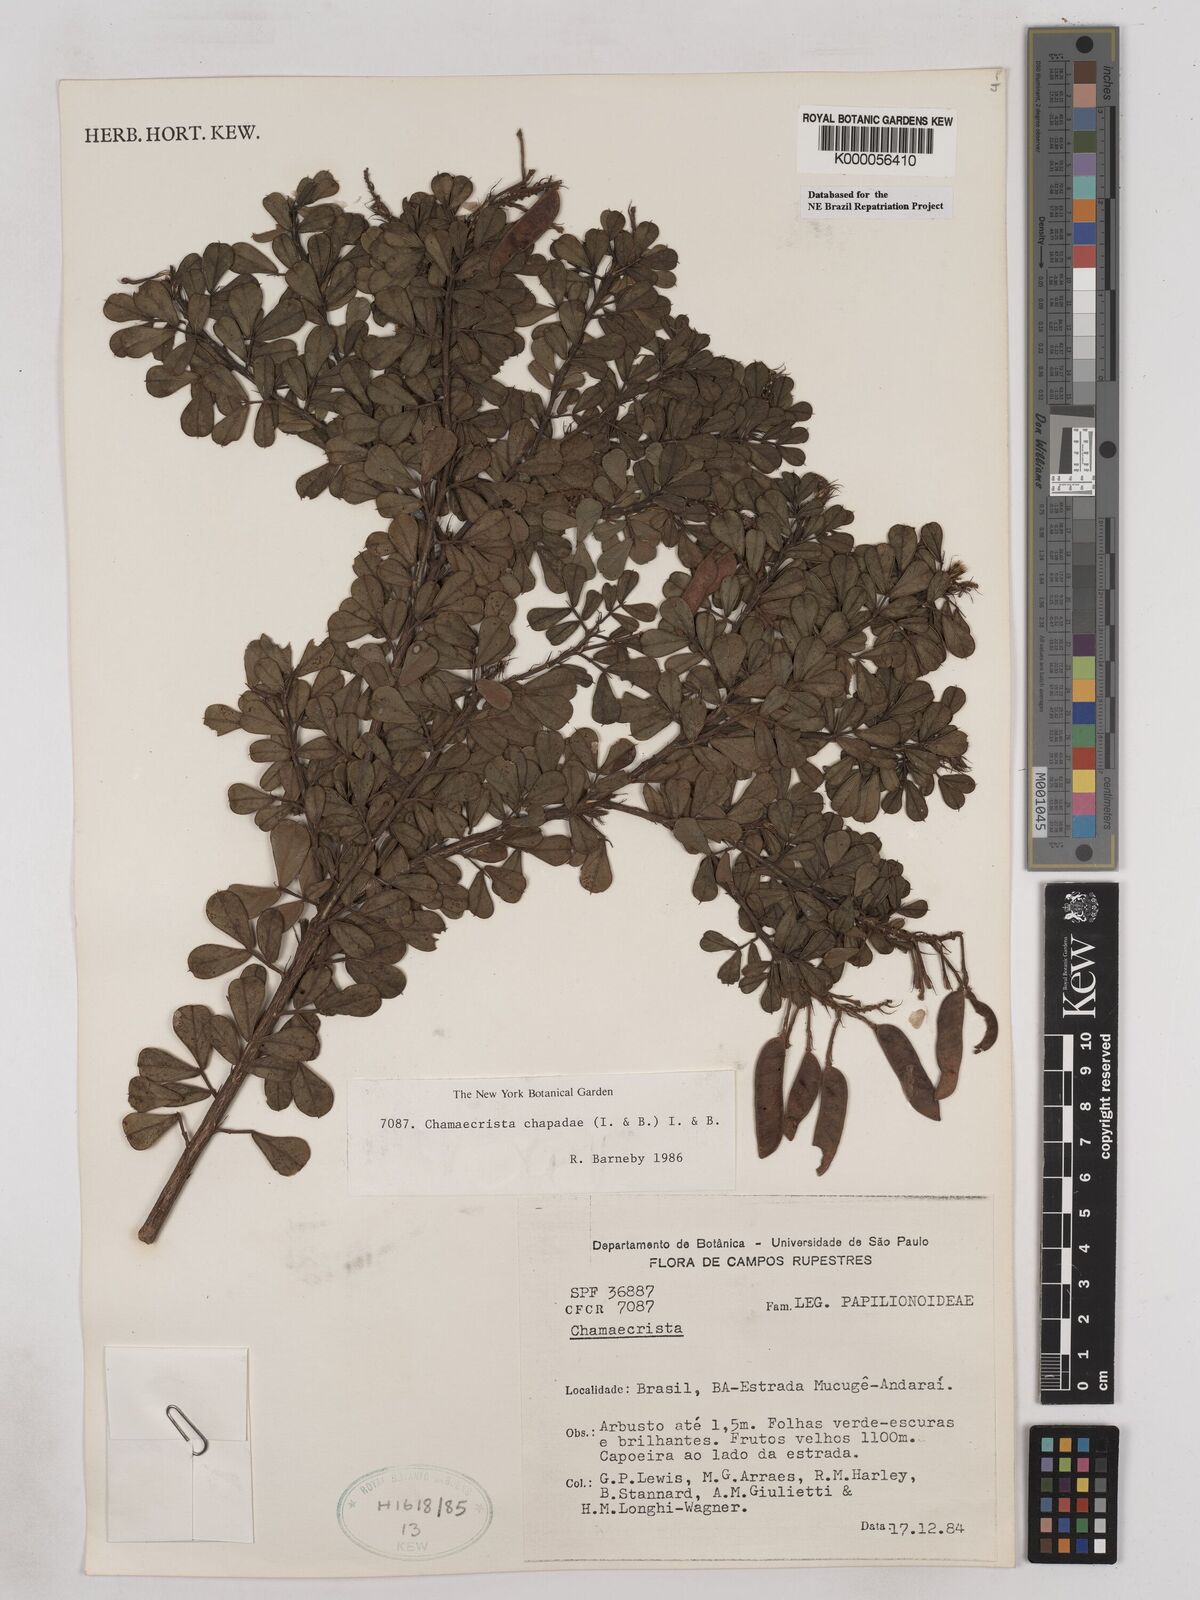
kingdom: Plantae
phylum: Tracheophyta
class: Magnoliopsida
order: Fabales
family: Fabaceae
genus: Chamaecrista
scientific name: Chamaecrista chapadae
